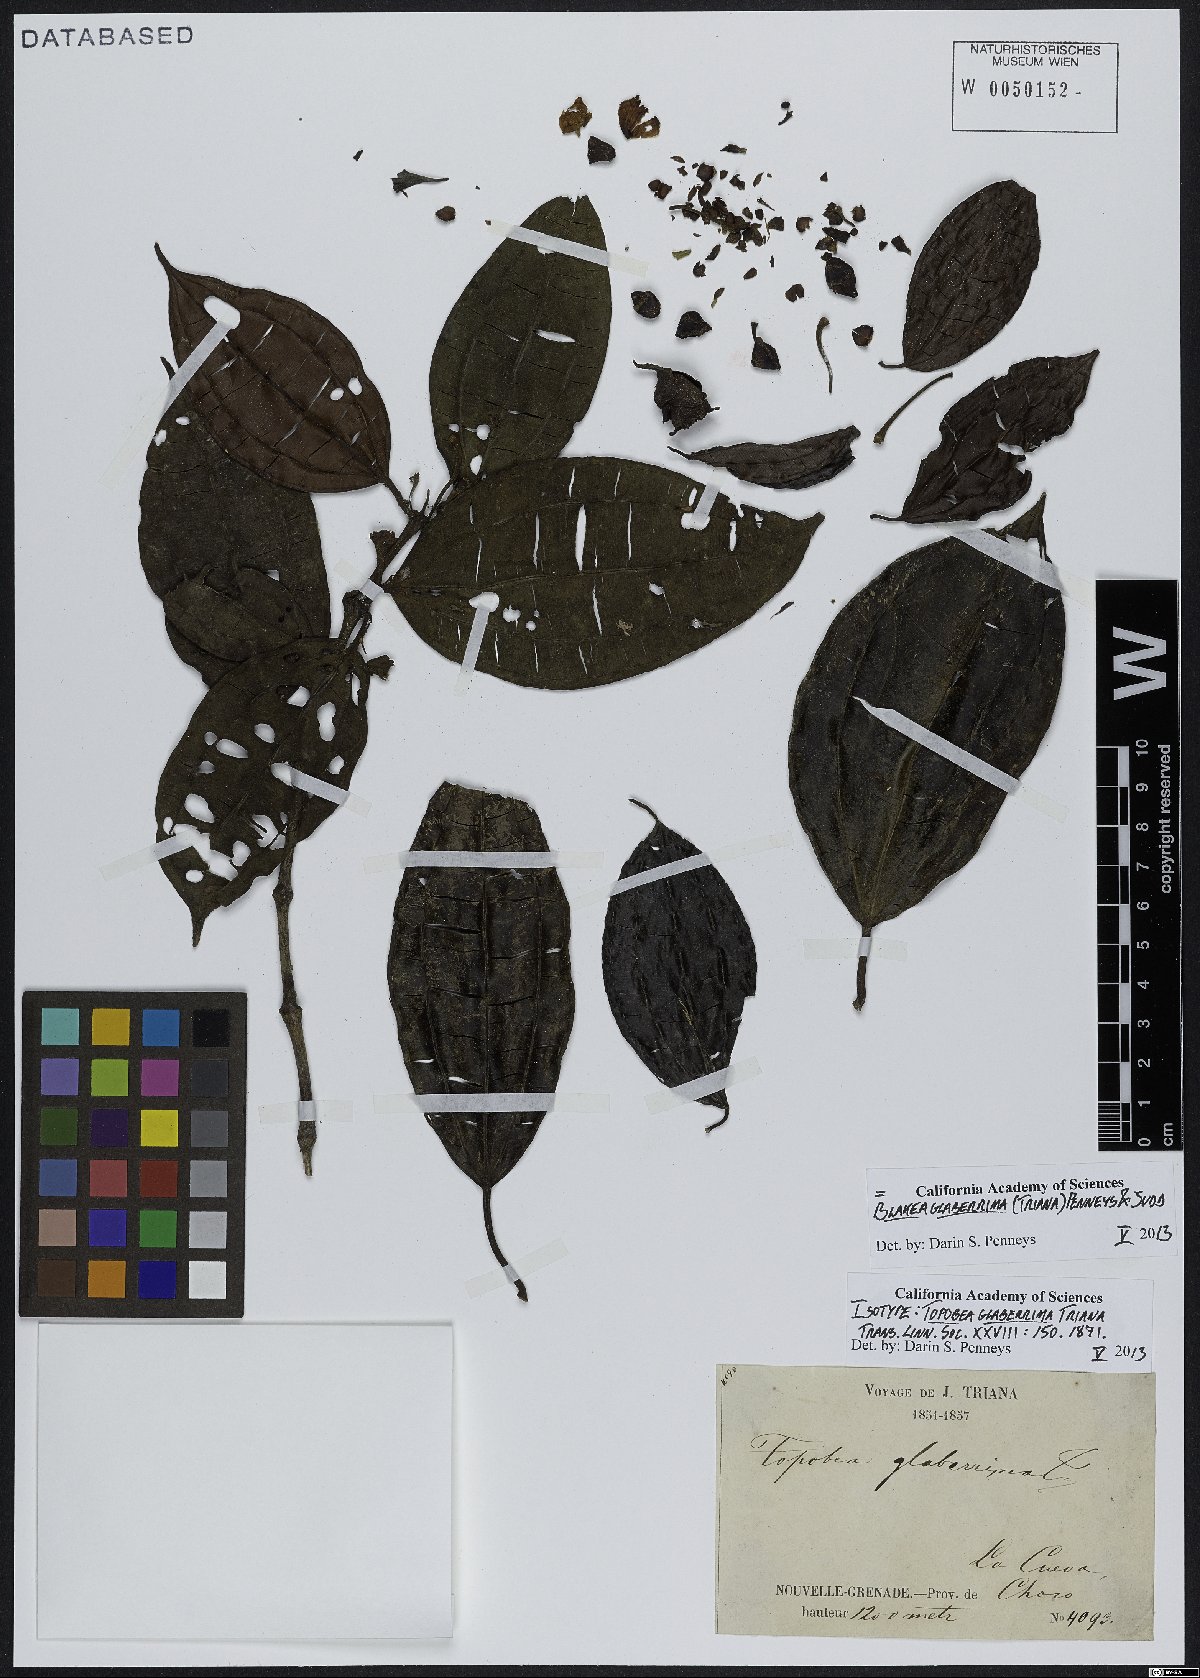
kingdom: Plantae
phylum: Tracheophyta
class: Magnoliopsida
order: Myrtales
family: Melastomataceae
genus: Blakea
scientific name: Blakea glaberrima
